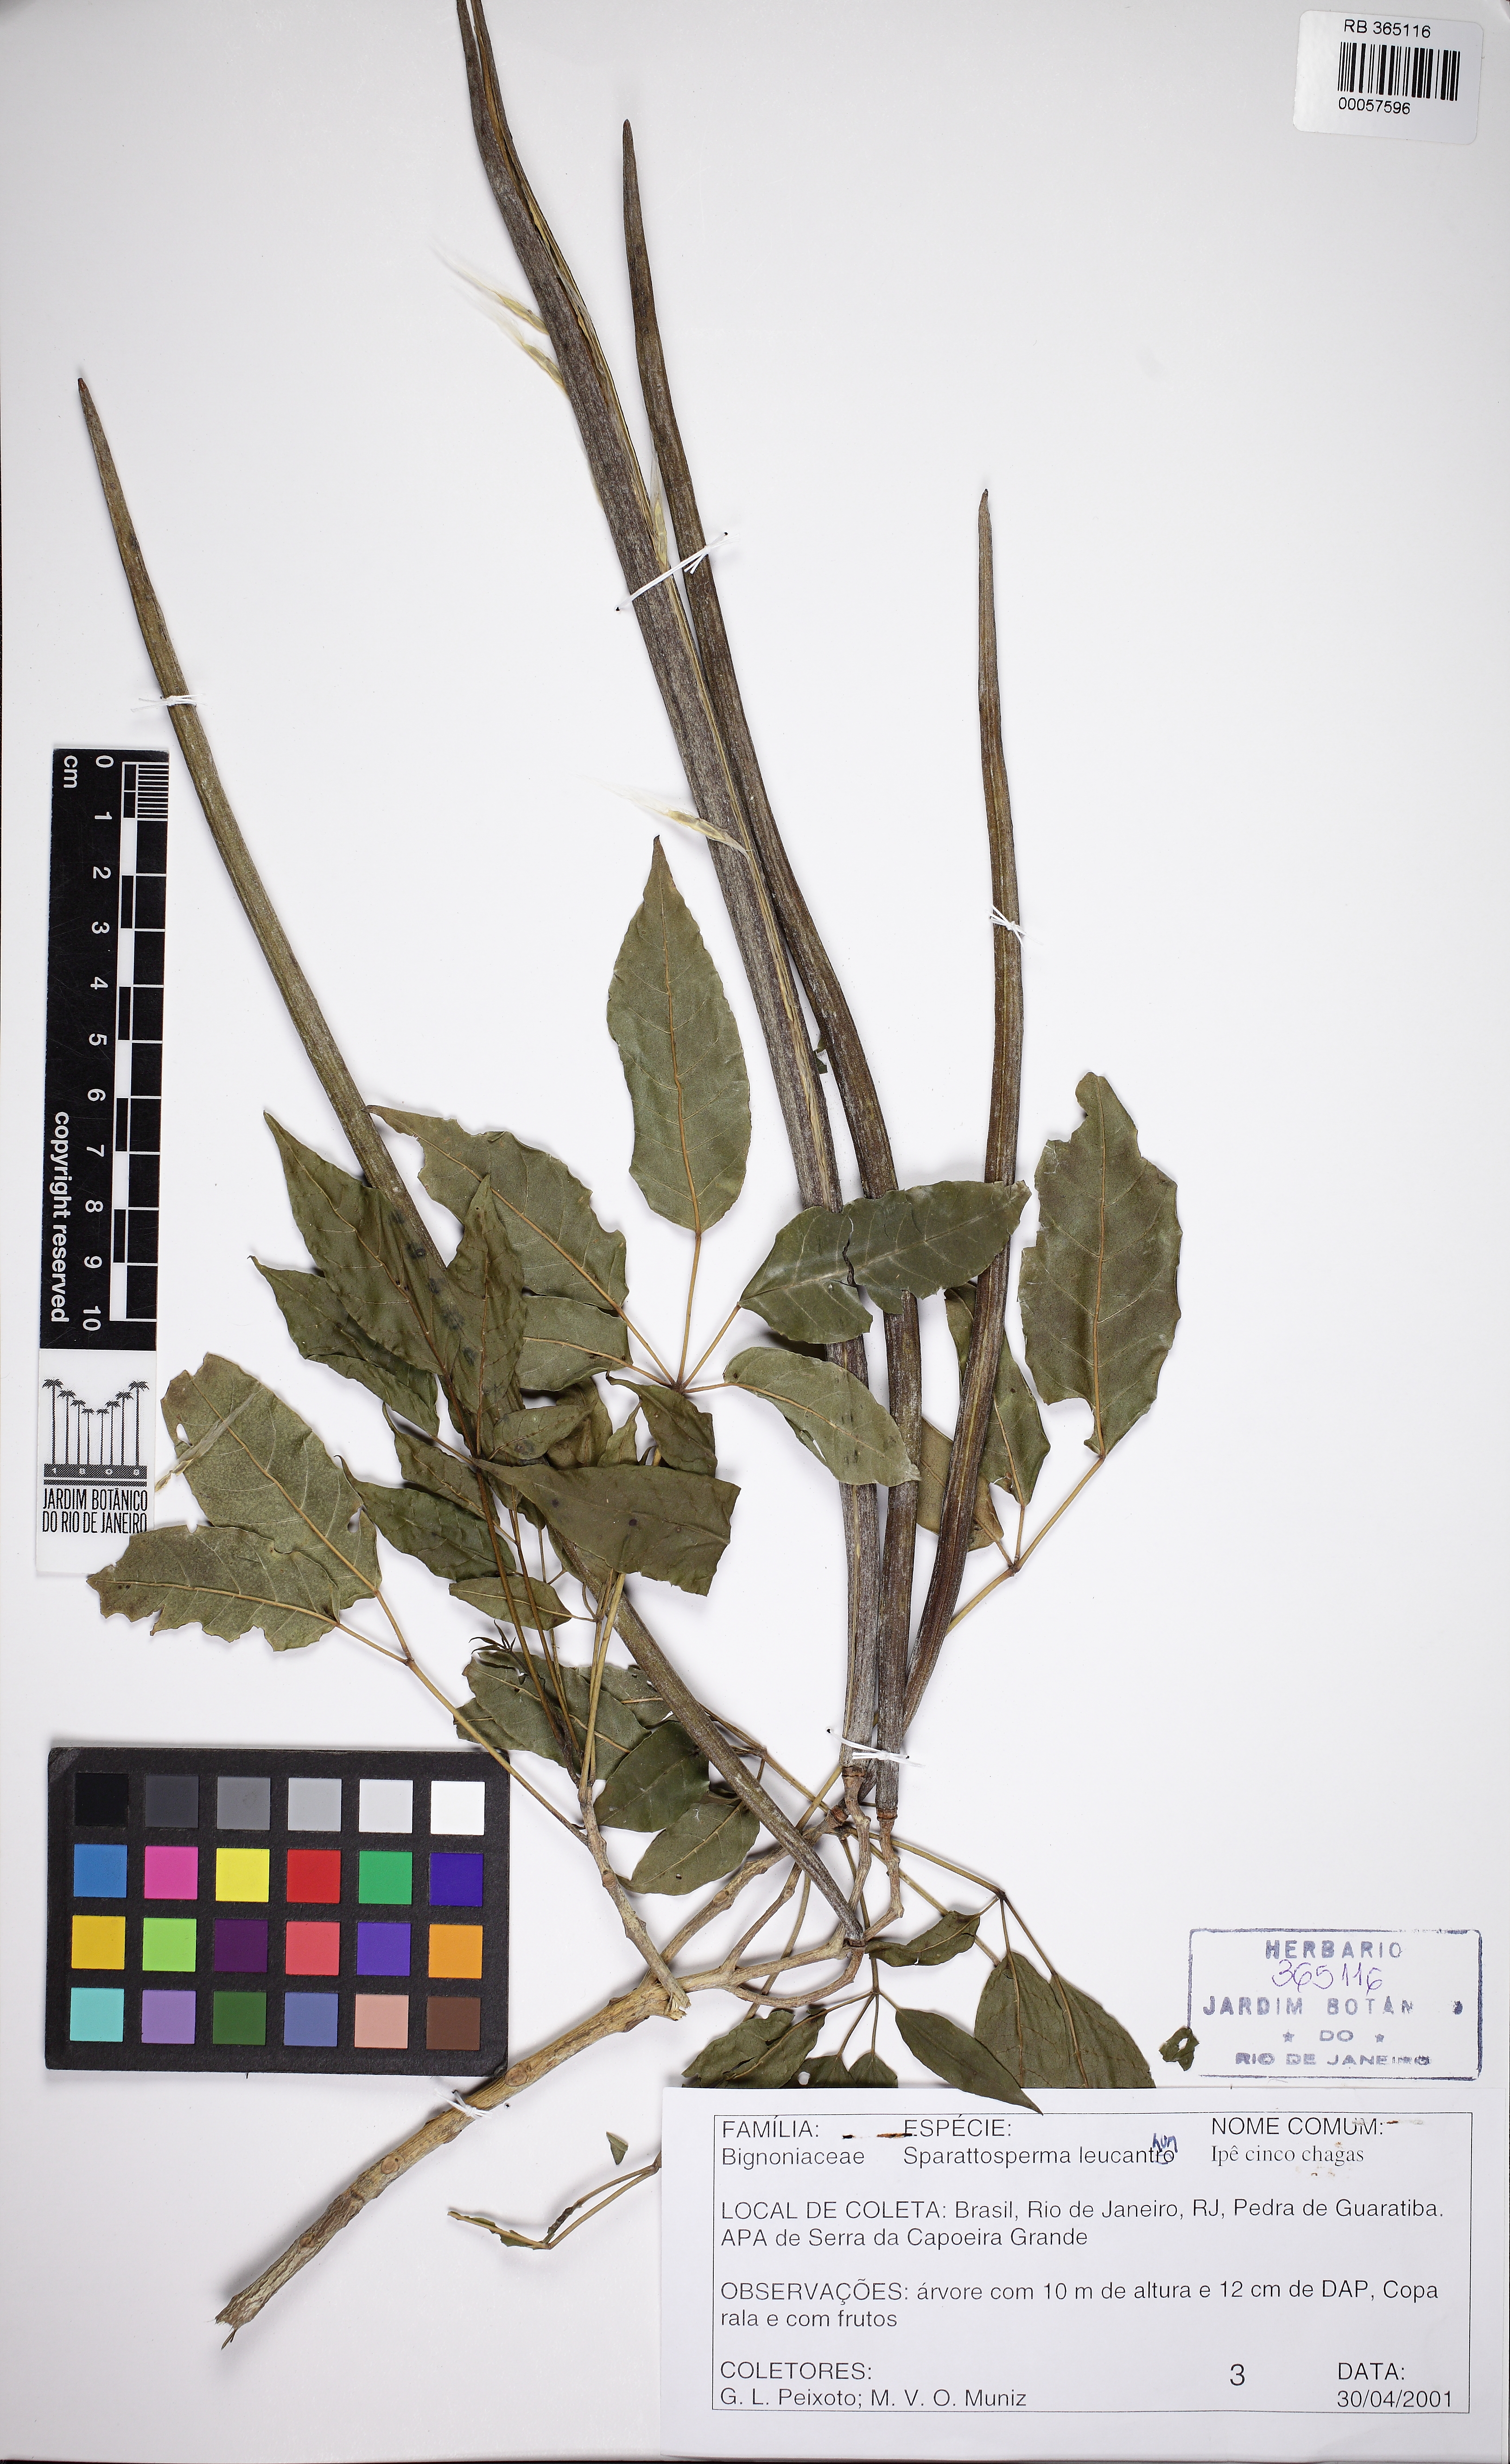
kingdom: Plantae
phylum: Tracheophyta
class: Magnoliopsida
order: Lamiales
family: Bignoniaceae
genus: Sparattosperma
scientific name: Sparattosperma leucanthum
